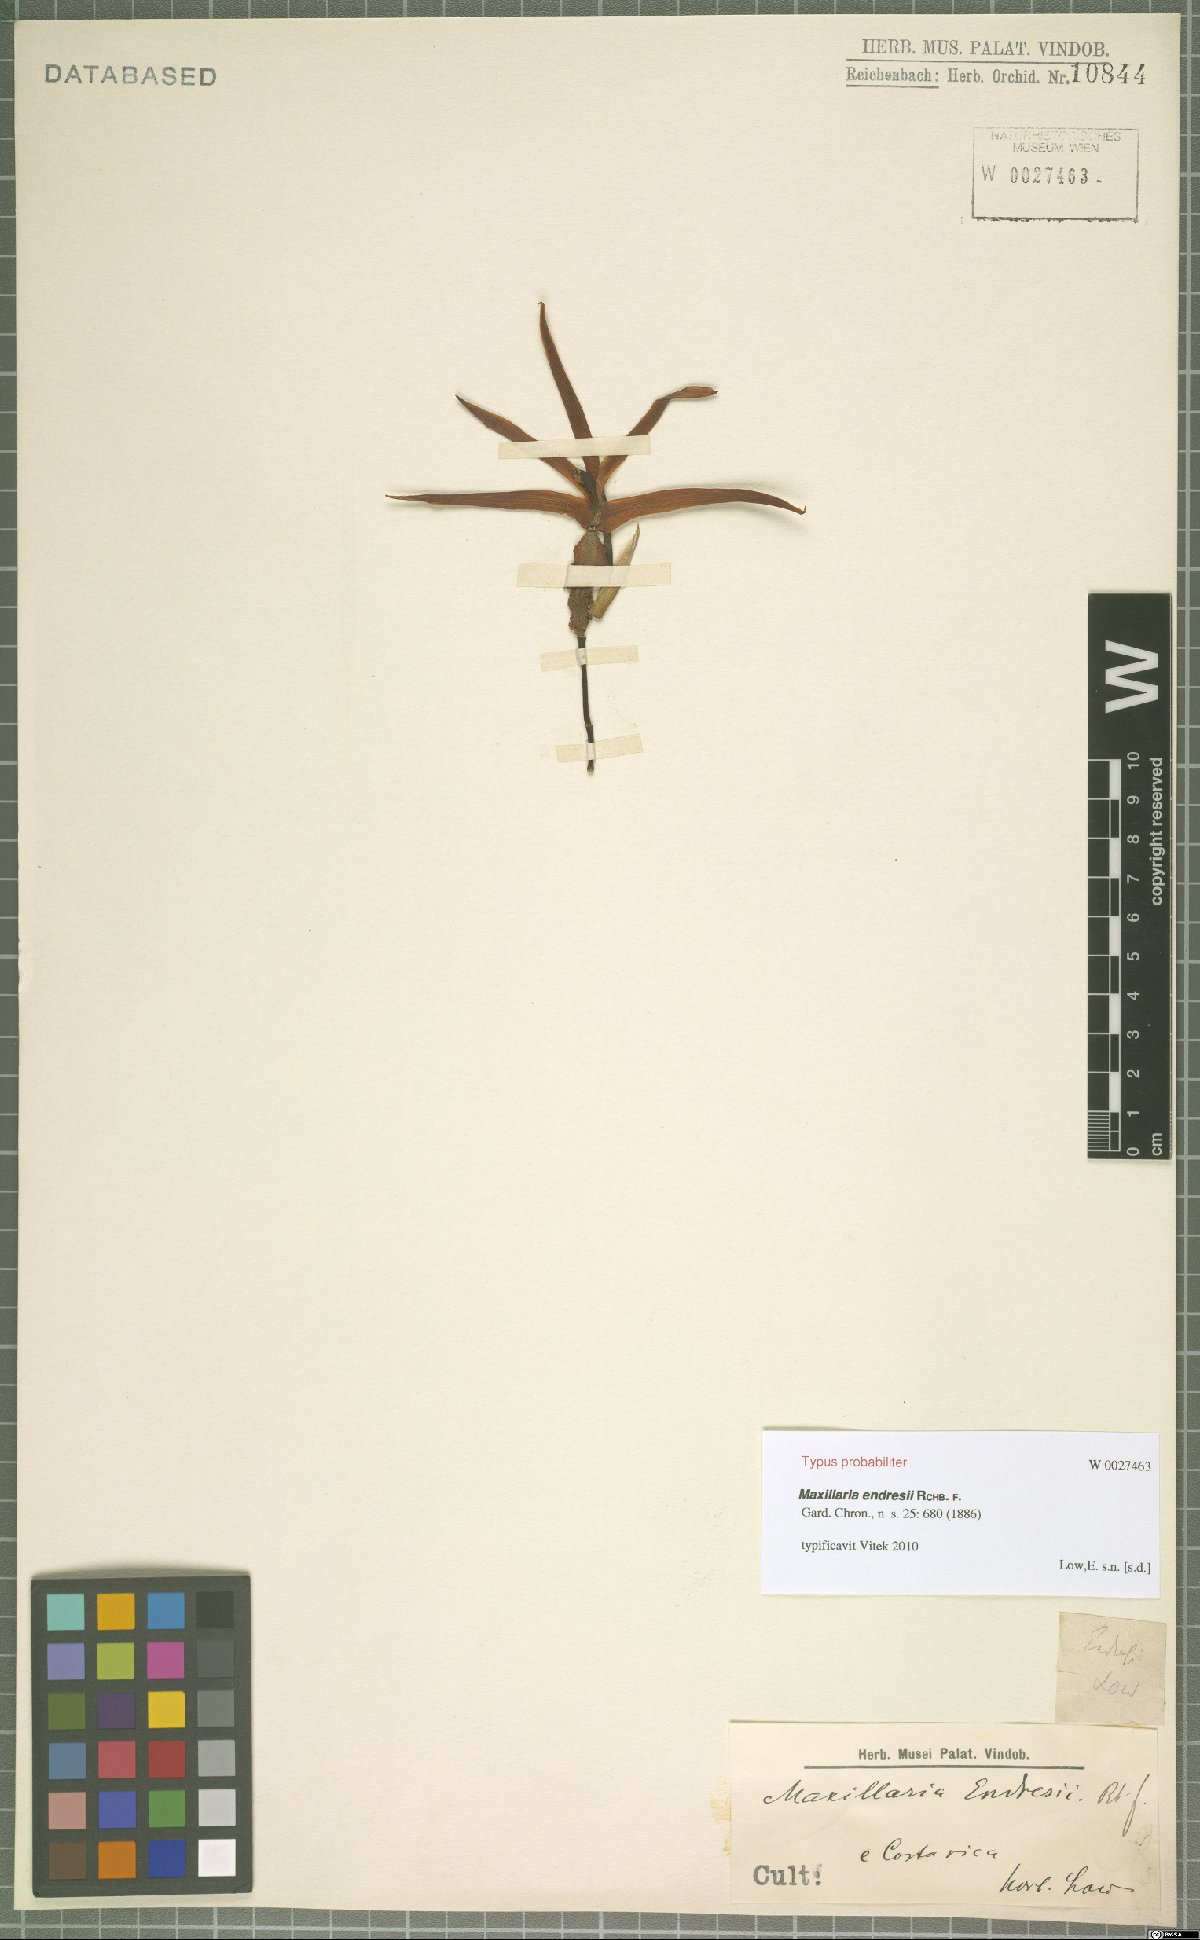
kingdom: Plantae
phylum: Tracheophyta
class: Liliopsida
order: Asparagales
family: Orchidaceae
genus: Maxillaria
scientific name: Maxillaria endresii
